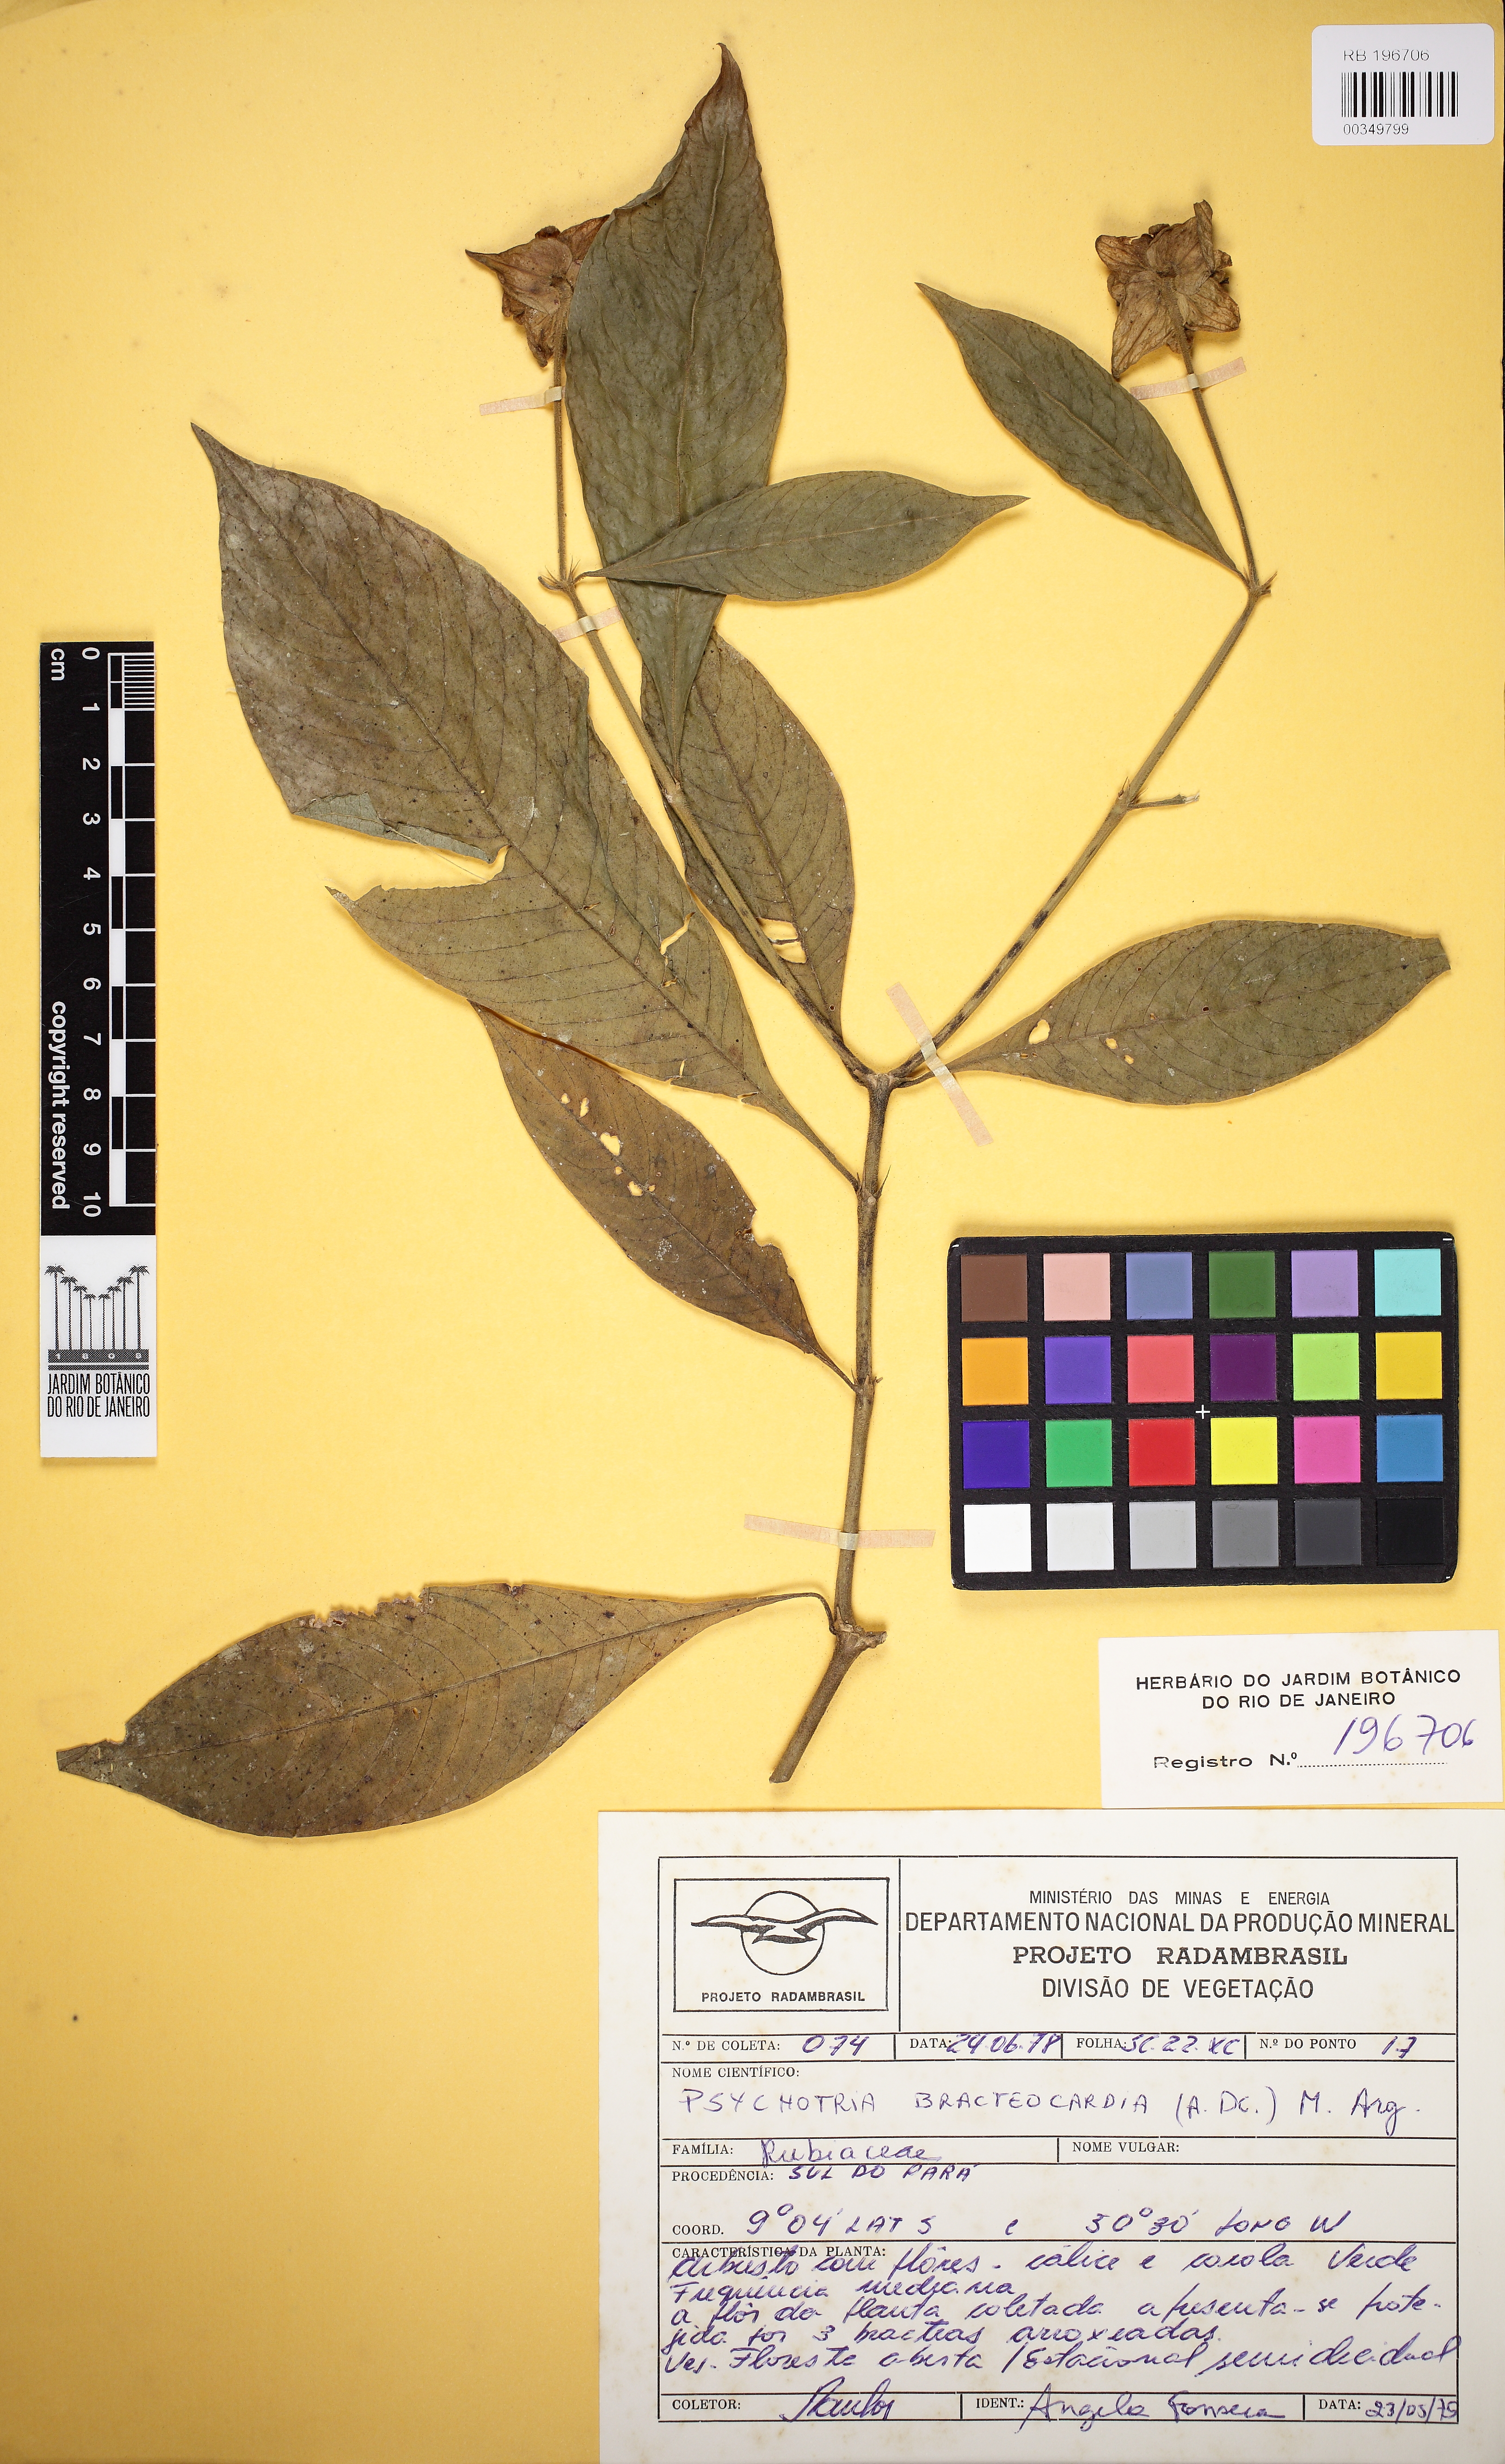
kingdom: Plantae
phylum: Tracheophyta
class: Magnoliopsida
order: Gentianales
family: Rubiaceae
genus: Psychotria
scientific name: Psychotria brachypoda
